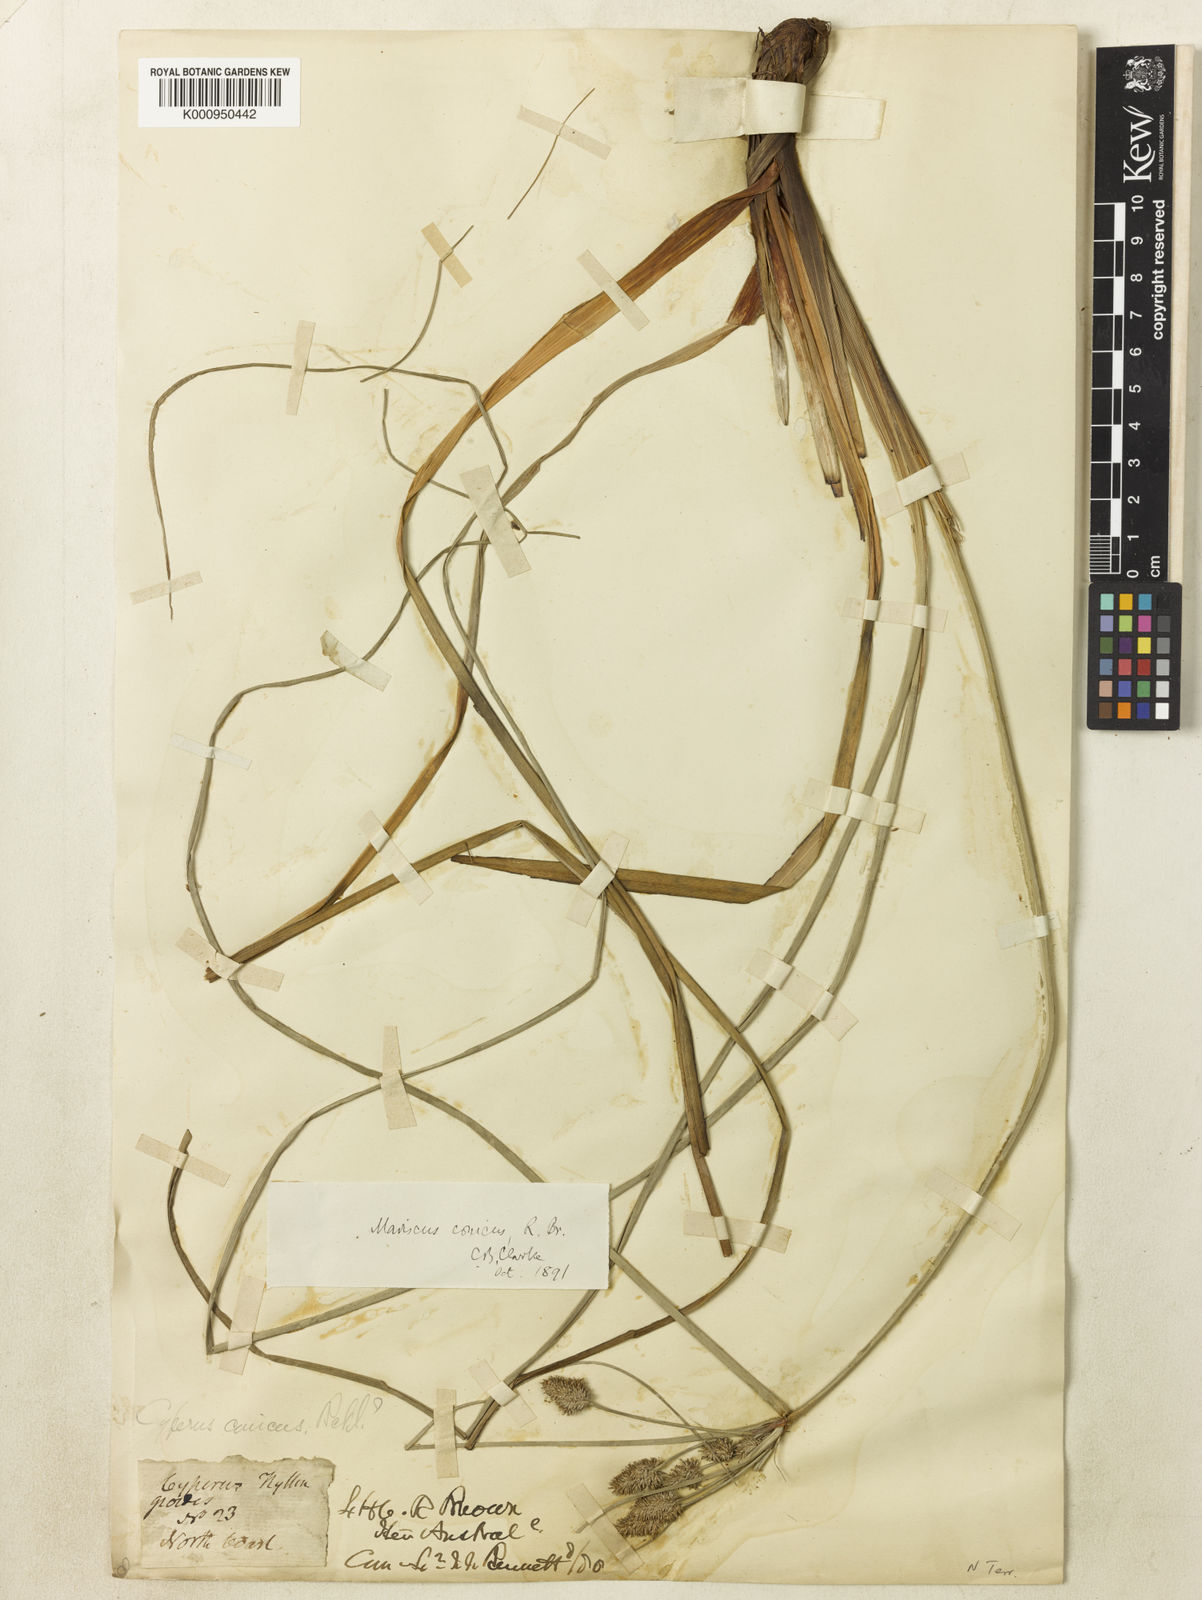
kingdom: Plantae
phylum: Tracheophyta
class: Liliopsida
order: Poales
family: Cyperaceae
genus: Cyperus
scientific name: Cyperus conicus
